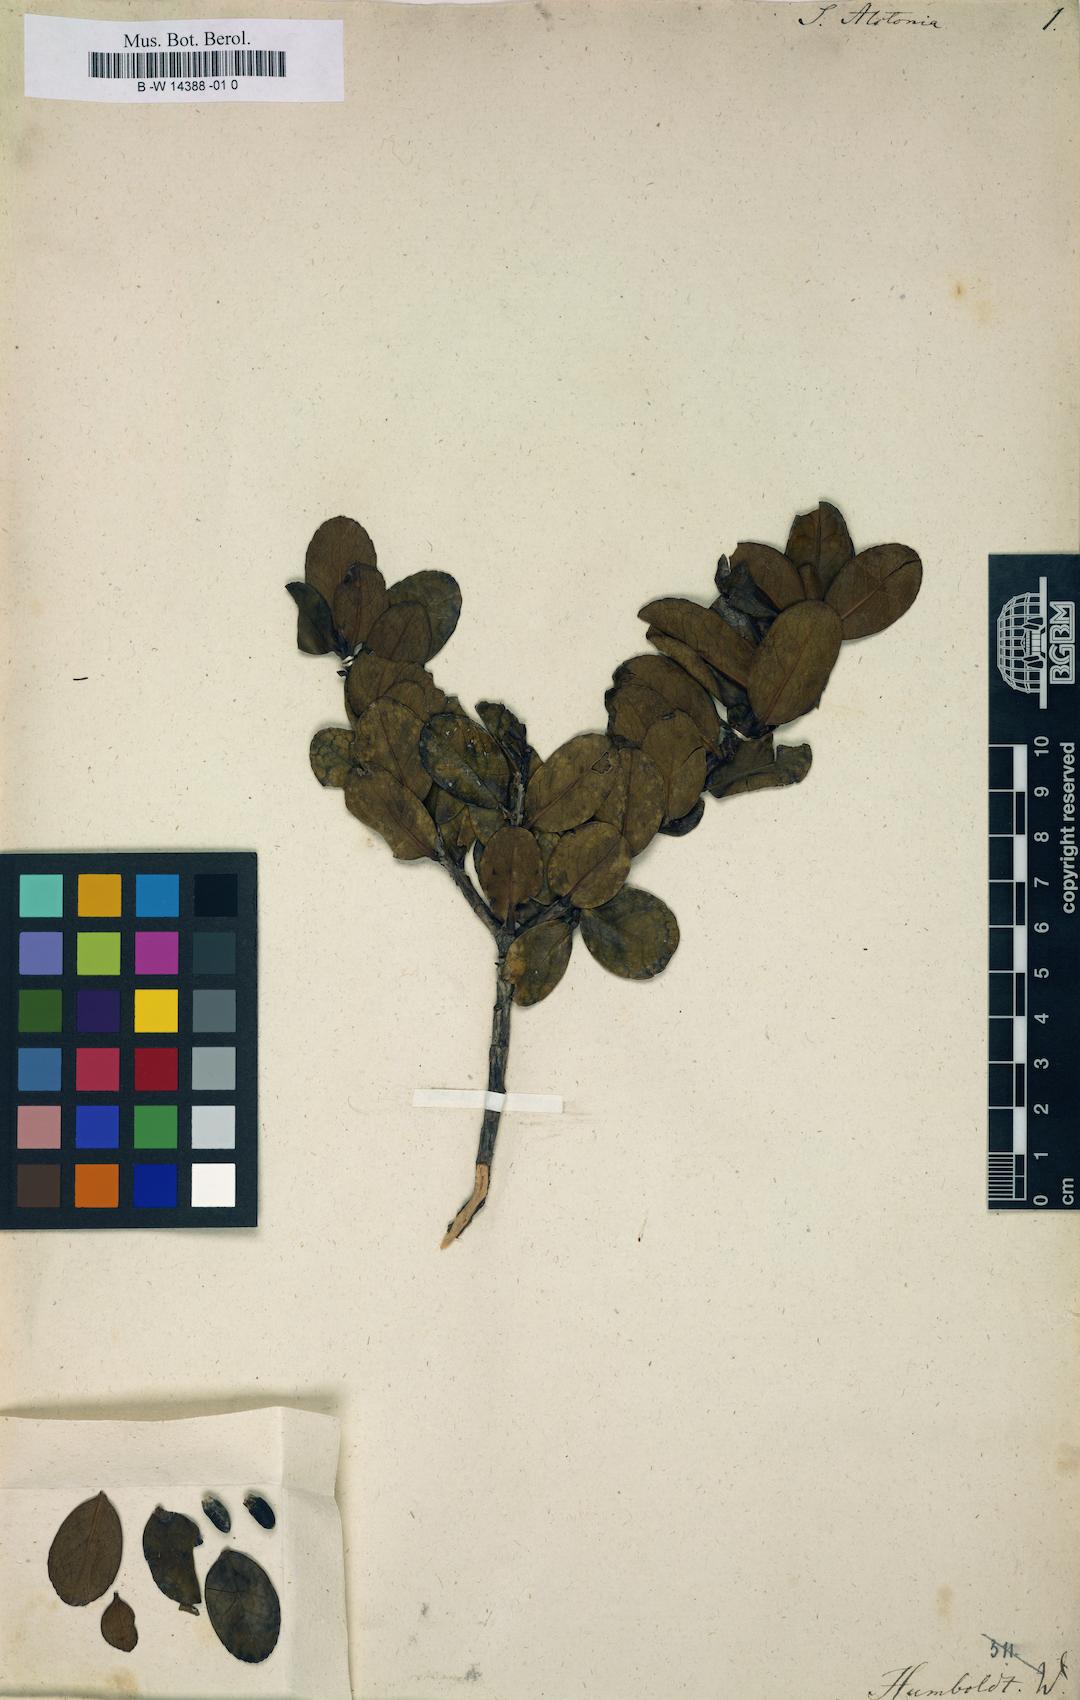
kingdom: Plantae
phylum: Tracheophyta
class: Magnoliopsida
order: Ericales
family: Symplocaceae
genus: Symplocos
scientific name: Symplocos theiformis
